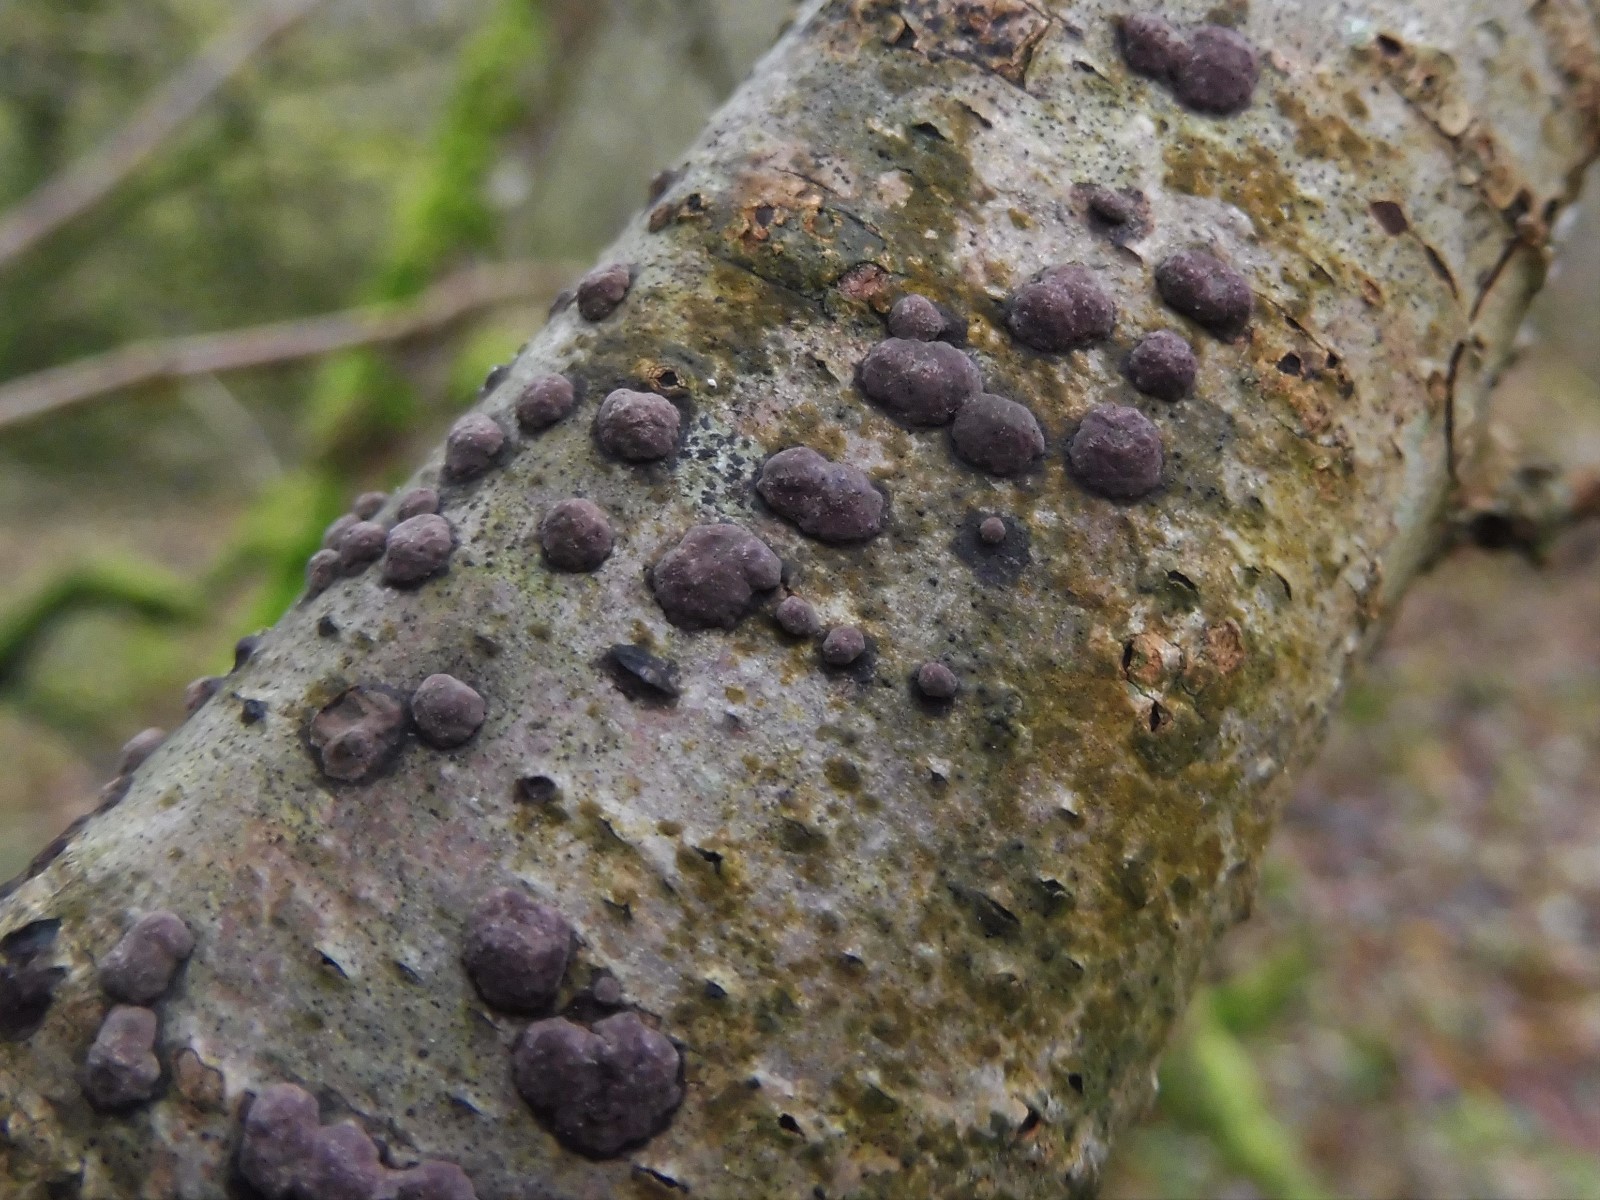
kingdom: Fungi
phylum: Ascomycota
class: Sordariomycetes
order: Xylariales
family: Hypoxylaceae
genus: Hypoxylon
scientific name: Hypoxylon fuscum
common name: kegleformet kulbær
